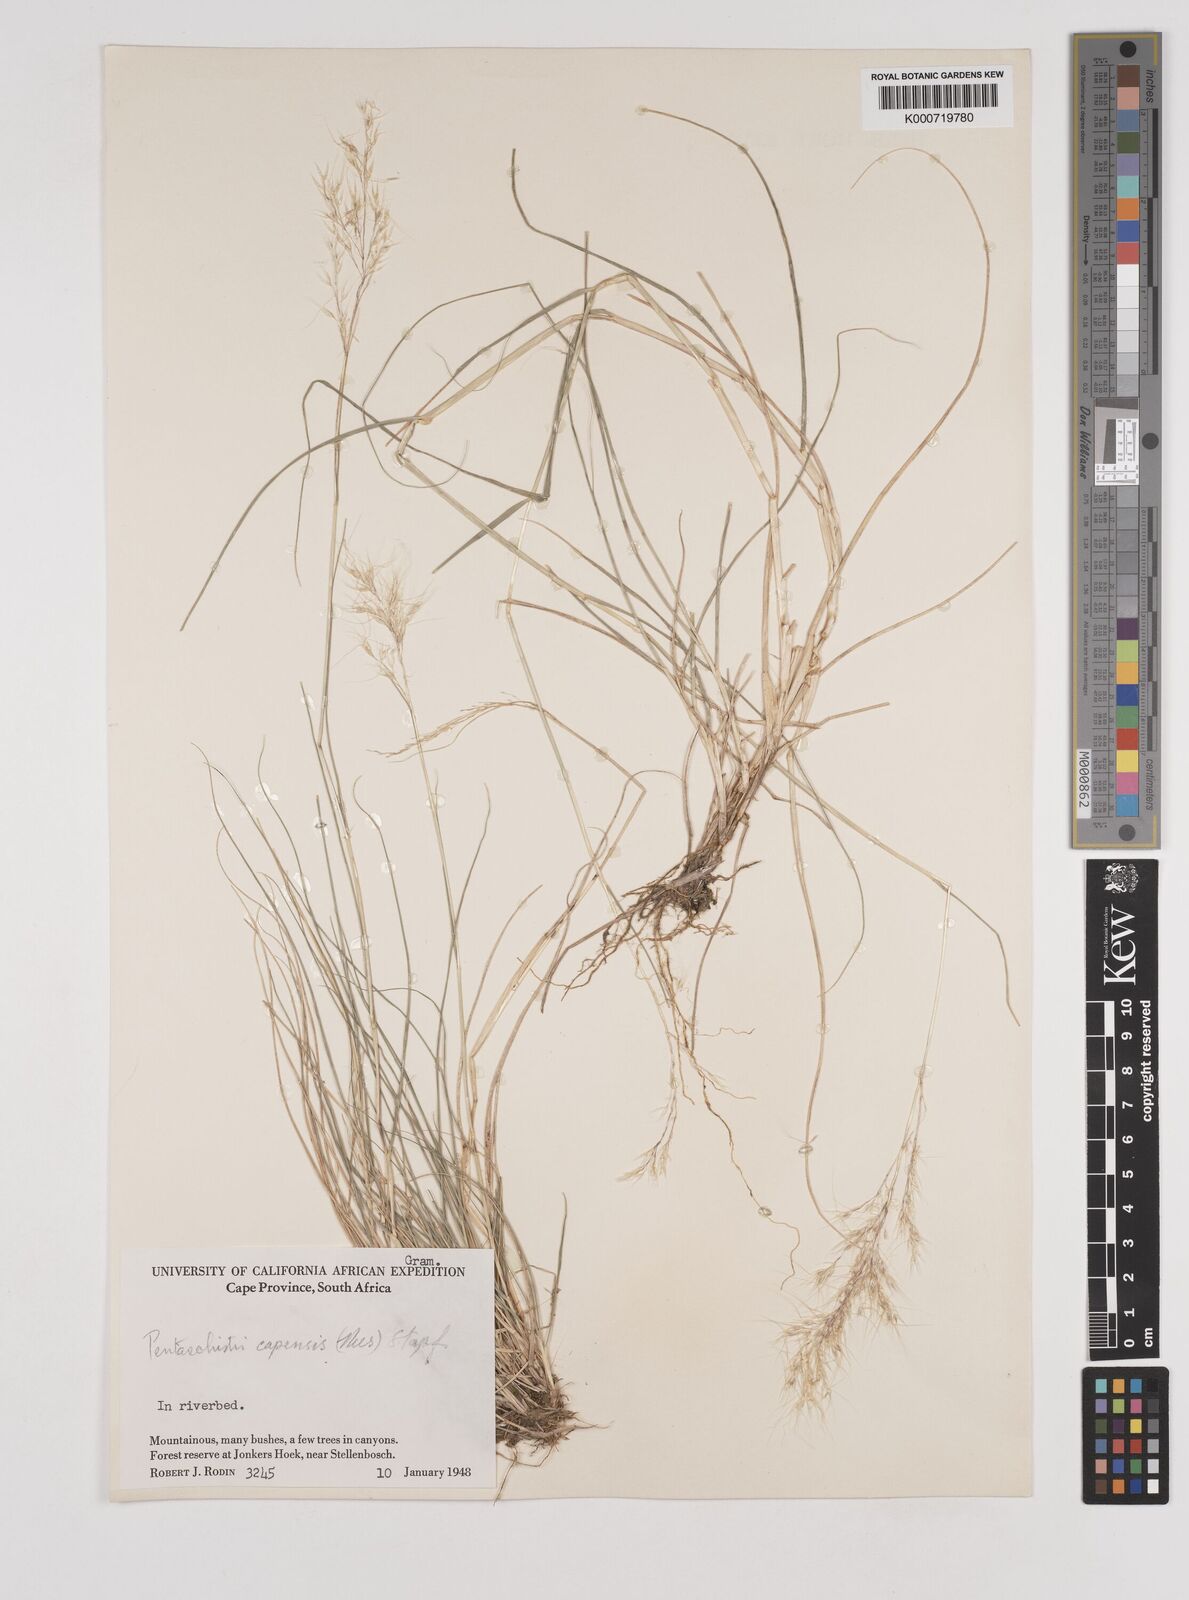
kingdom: Plantae
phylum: Tracheophyta
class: Liliopsida
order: Poales
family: Poaceae
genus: Pentameris
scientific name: Pentameris capensis
